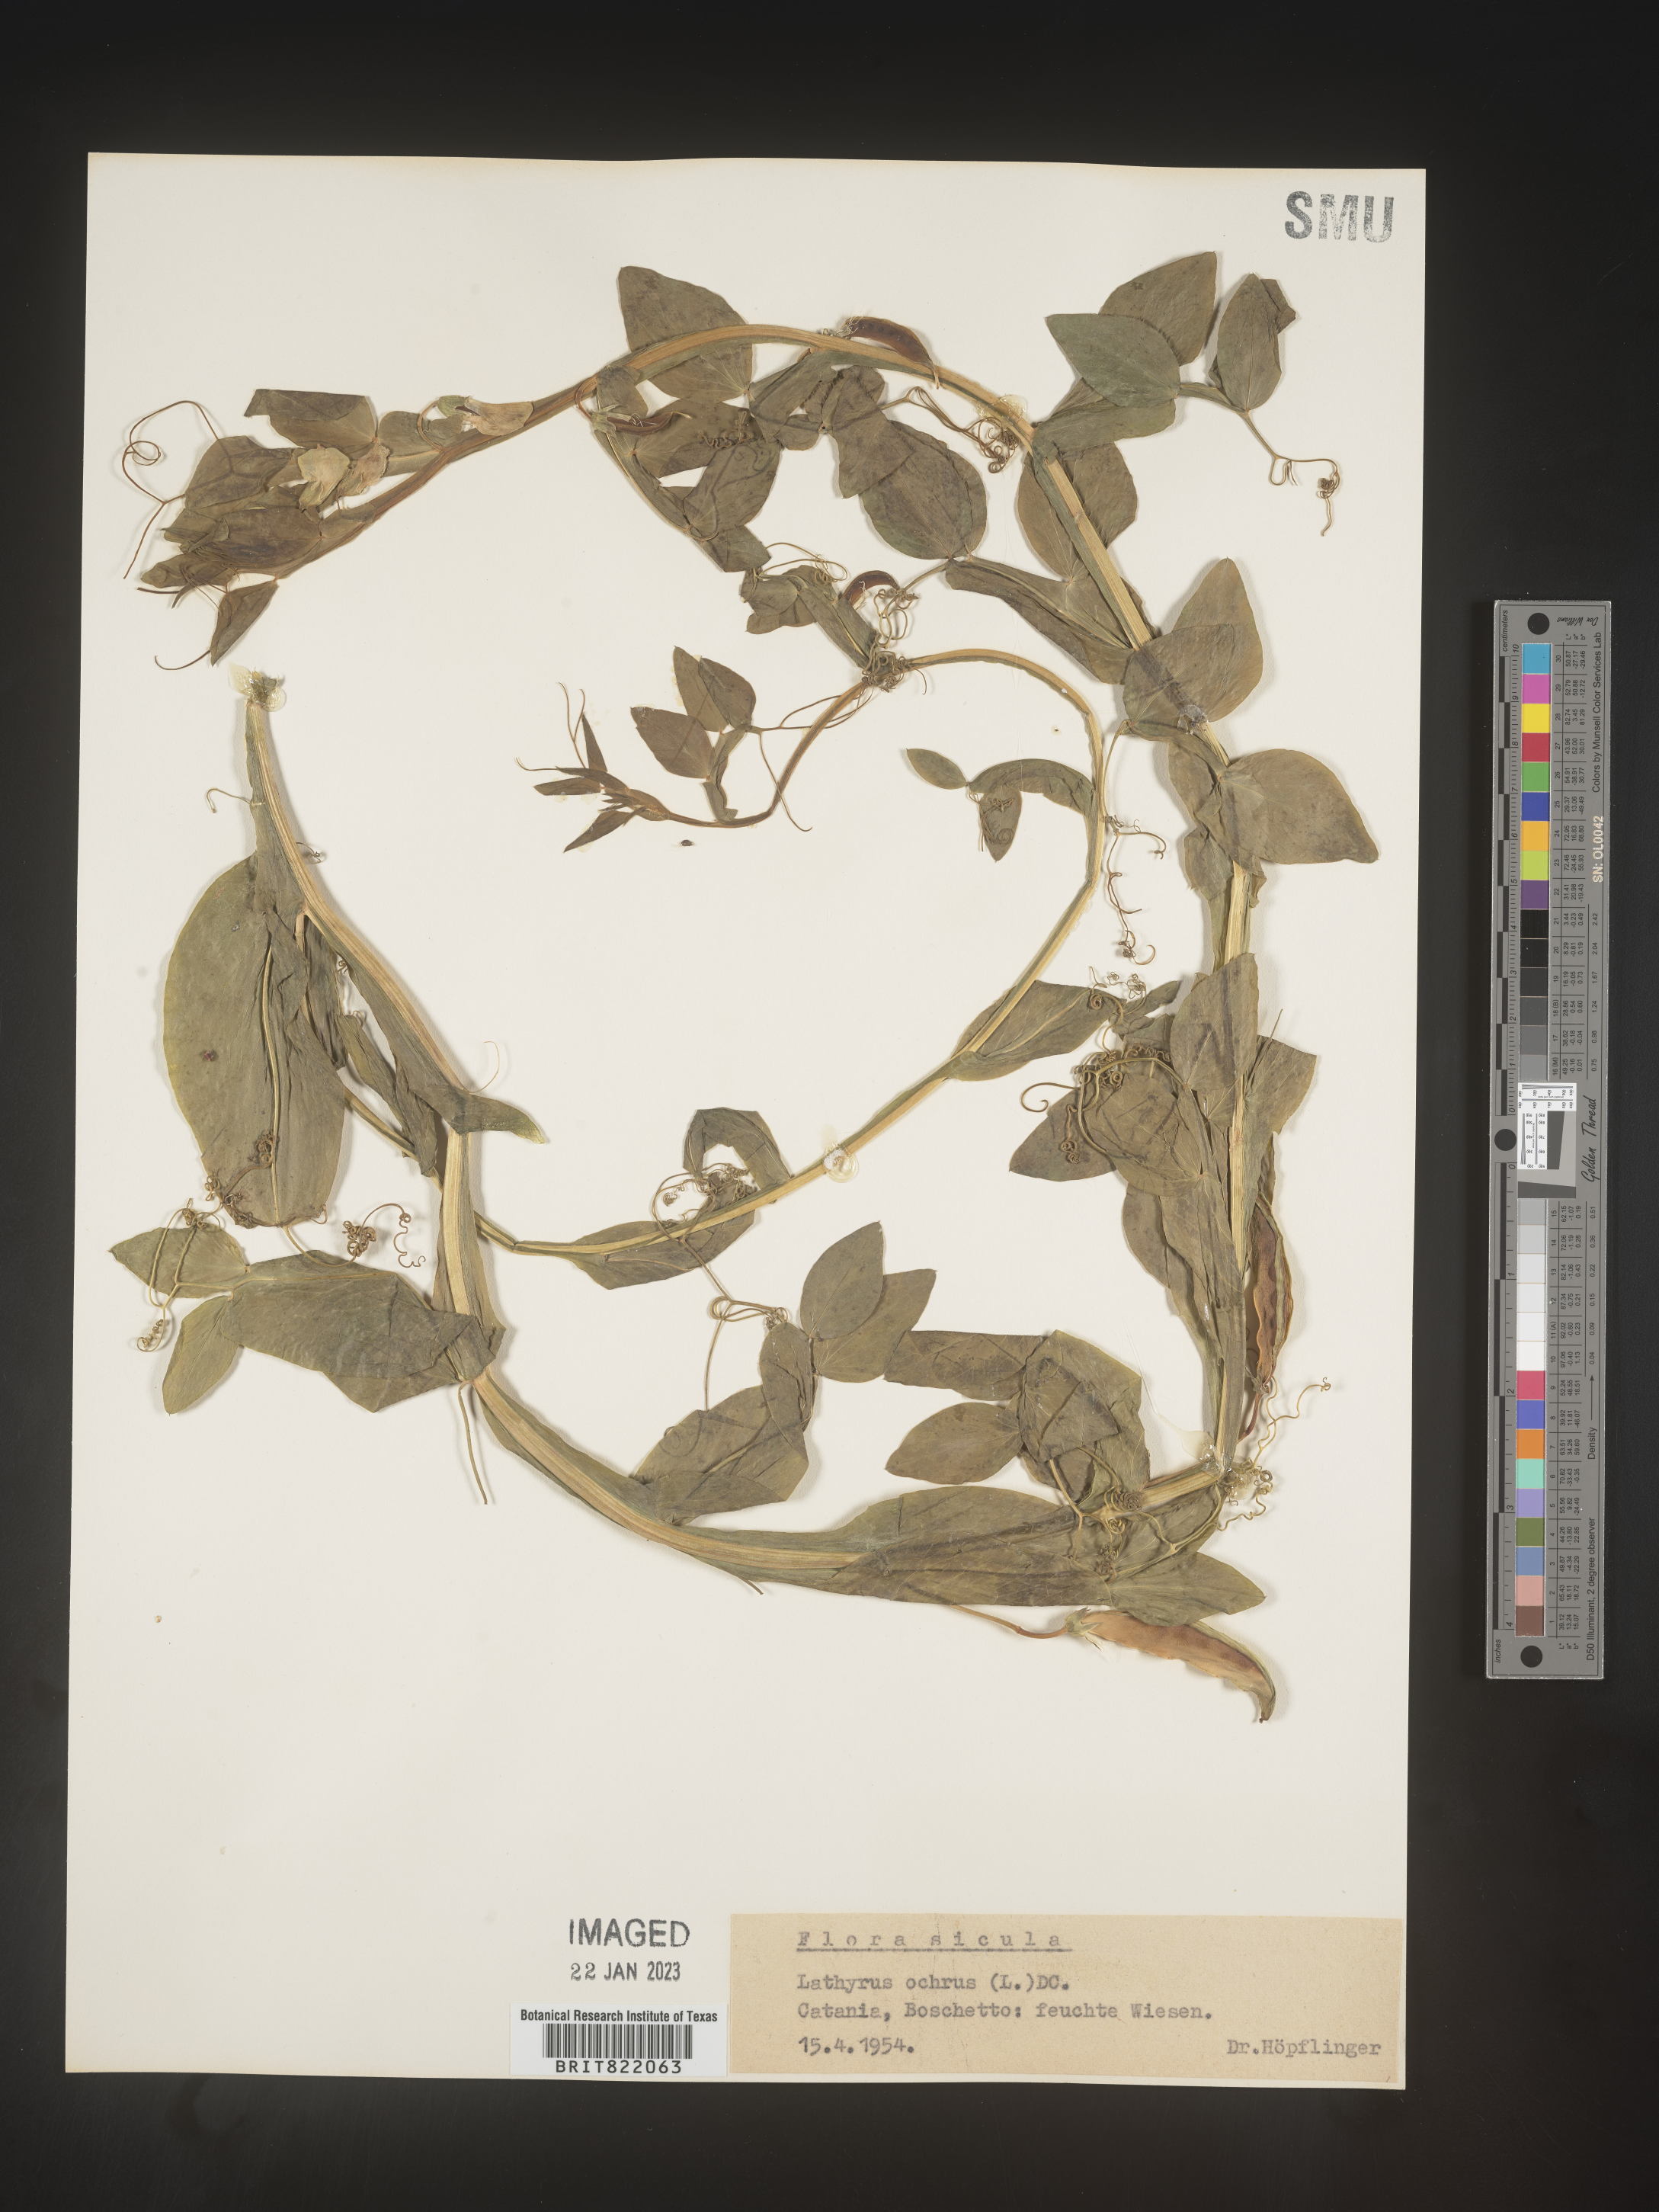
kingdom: Plantae
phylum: Tracheophyta
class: Magnoliopsida
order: Fabales
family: Fabaceae
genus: Lathyrus
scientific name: Lathyrus
